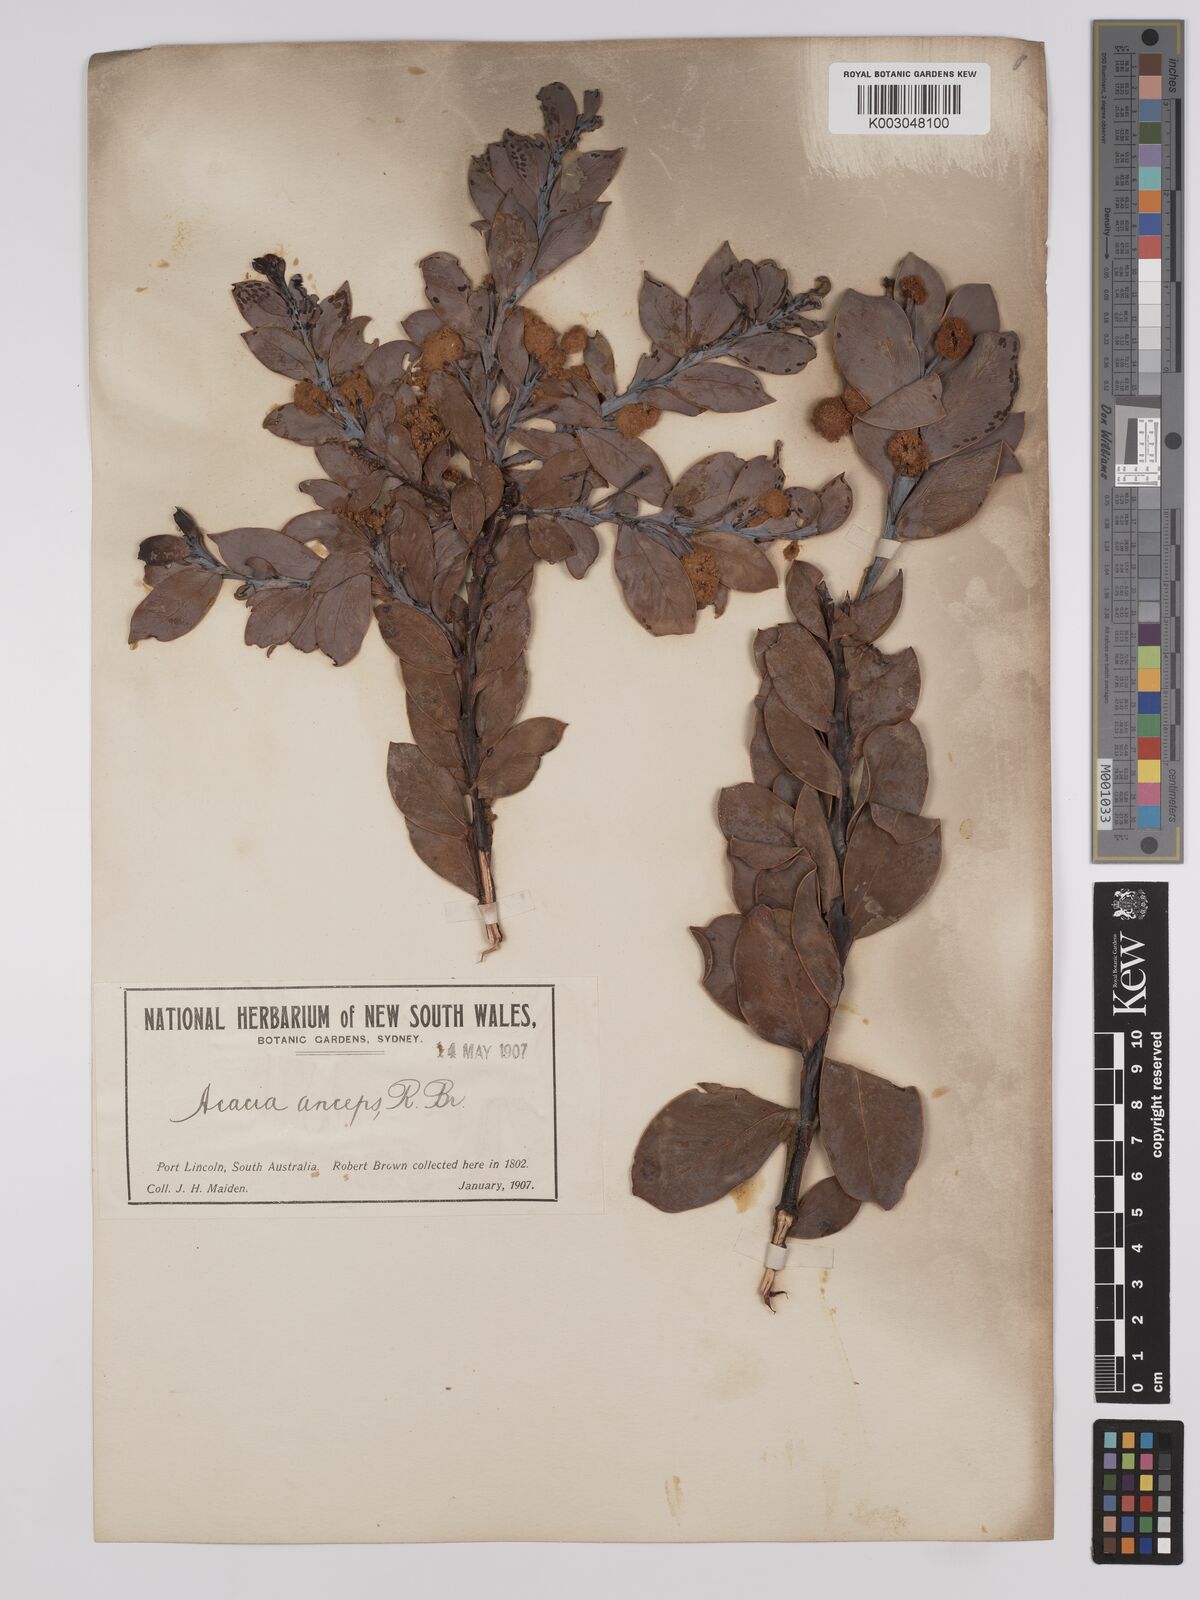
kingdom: Plantae
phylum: Tracheophyta
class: Magnoliopsida
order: Fabales
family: Fabaceae
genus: Acacia
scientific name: Acacia anceps
